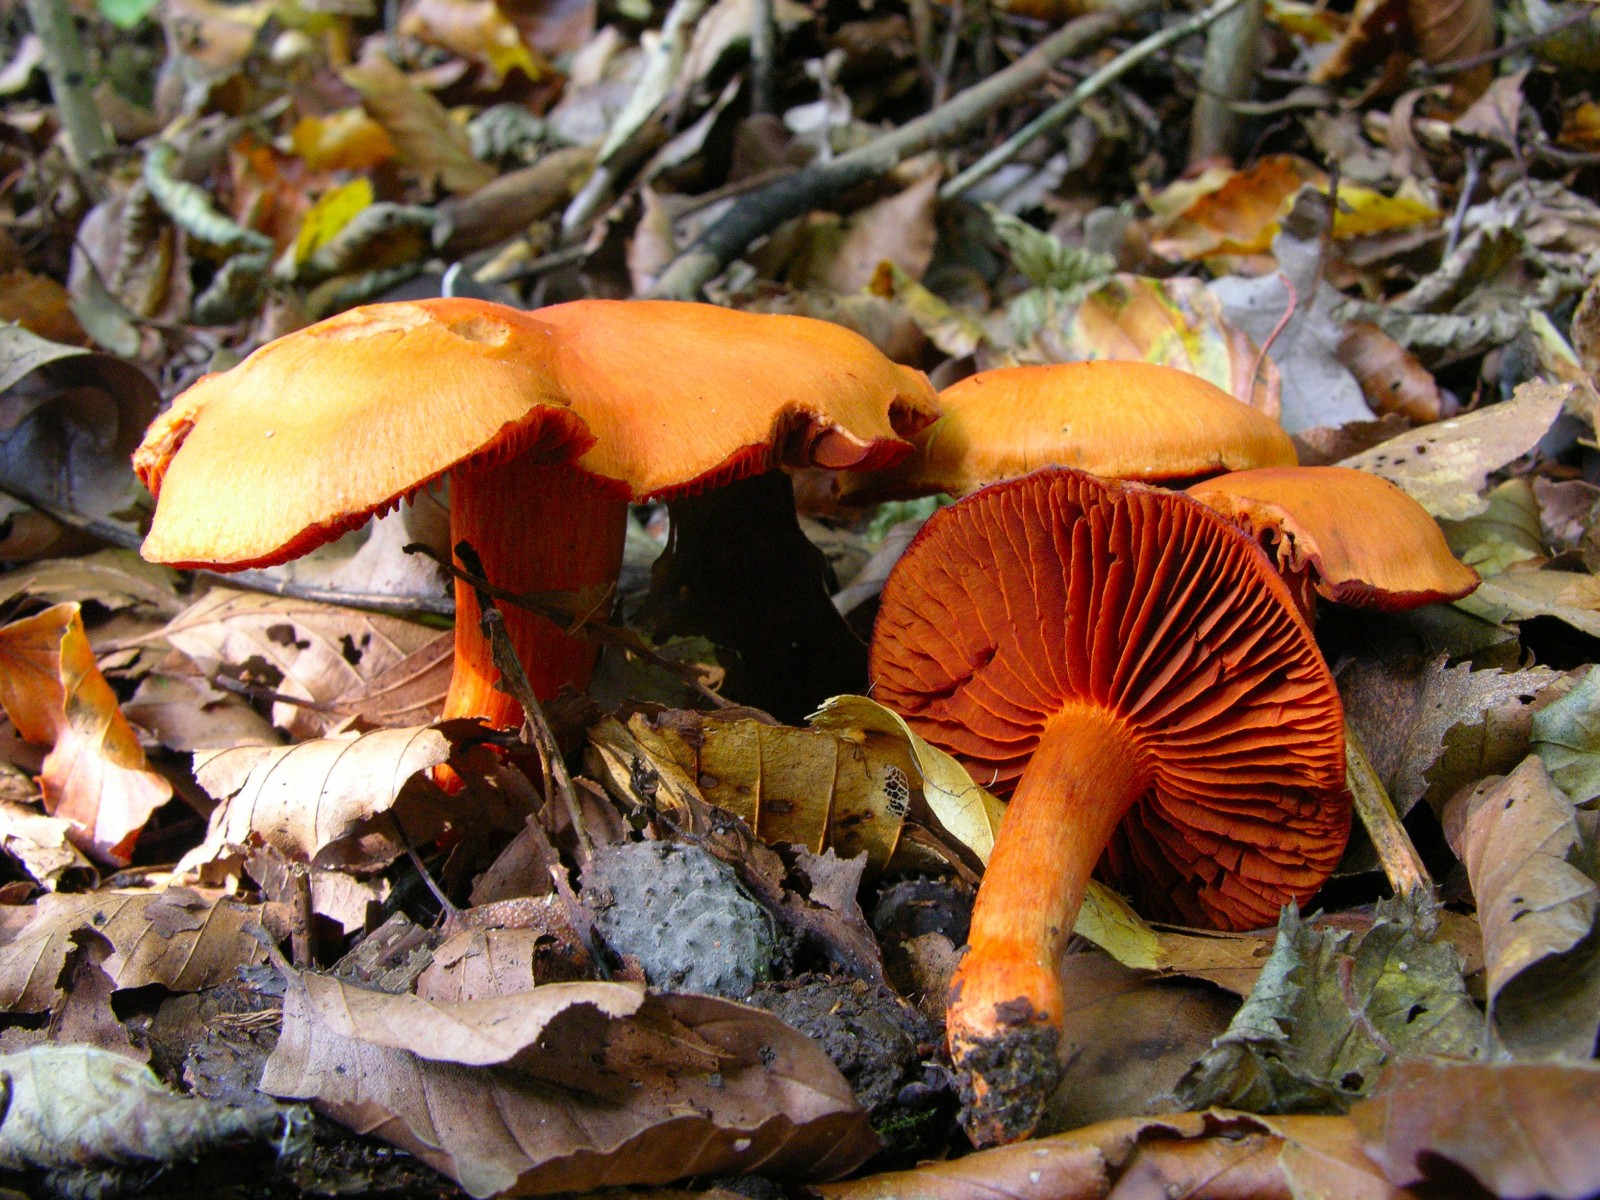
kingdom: Fungi
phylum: Basidiomycota
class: Agaricomycetes
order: Agaricales
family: Cortinariaceae
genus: Cortinarius
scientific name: Cortinarius cinnabarinus
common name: cinnober-slørhat
